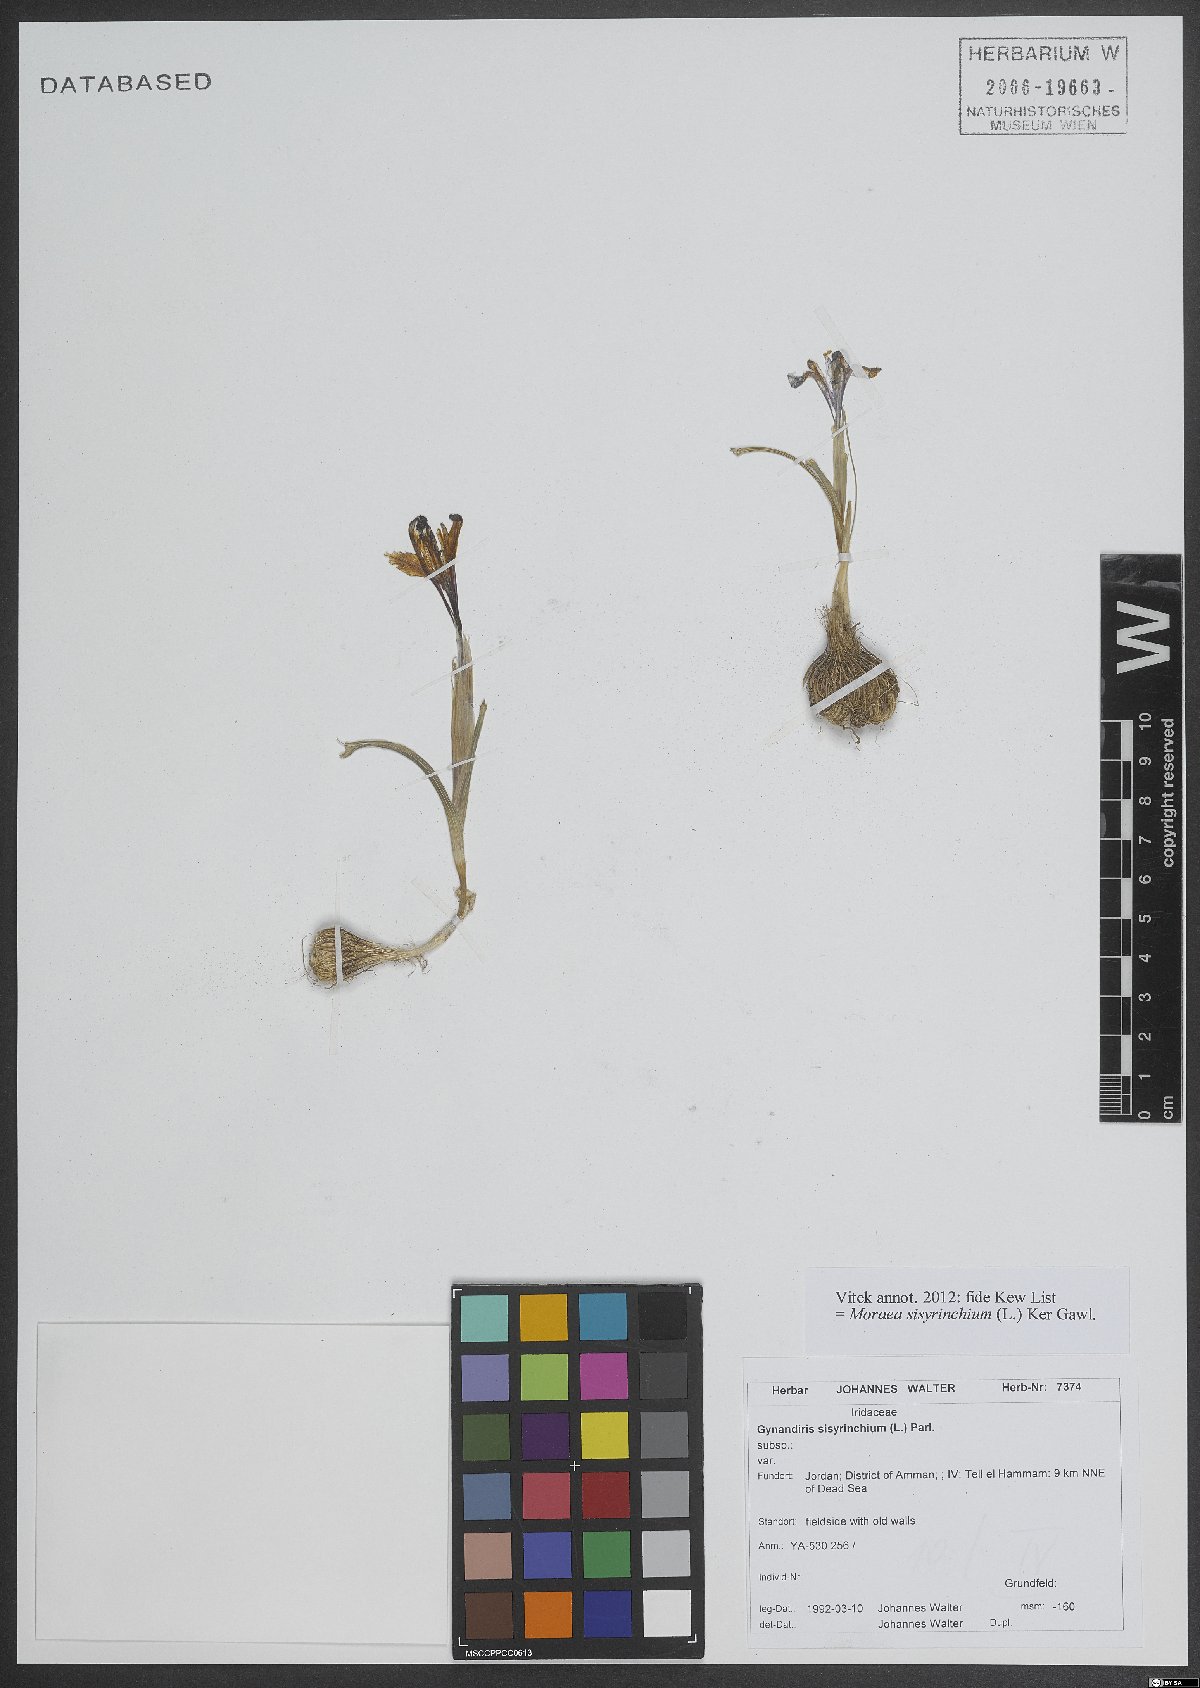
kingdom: Plantae
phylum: Tracheophyta
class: Liliopsida
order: Asparagales
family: Iridaceae
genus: Moraea
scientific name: Moraea sisyrinchium
